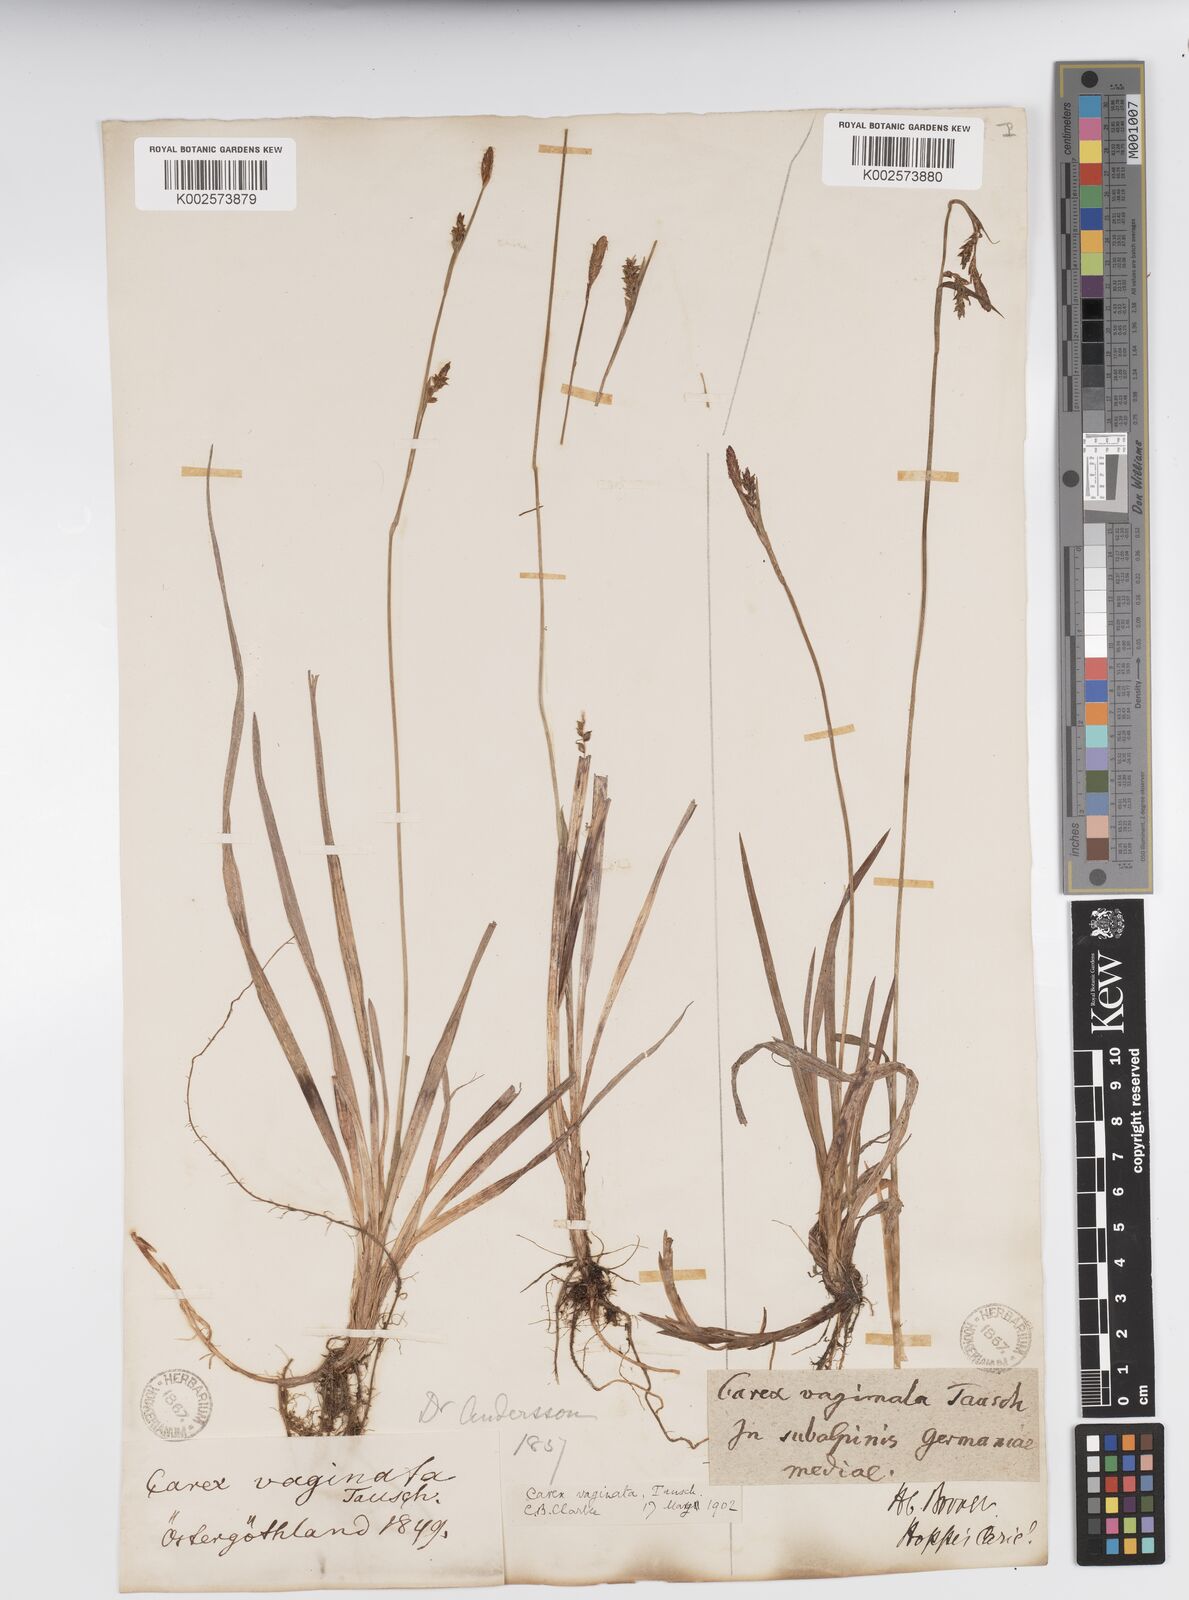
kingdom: Plantae
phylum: Tracheophyta
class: Liliopsida
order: Poales
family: Cyperaceae
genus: Carex
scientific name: Carex vaginata
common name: Sheathed sedge
